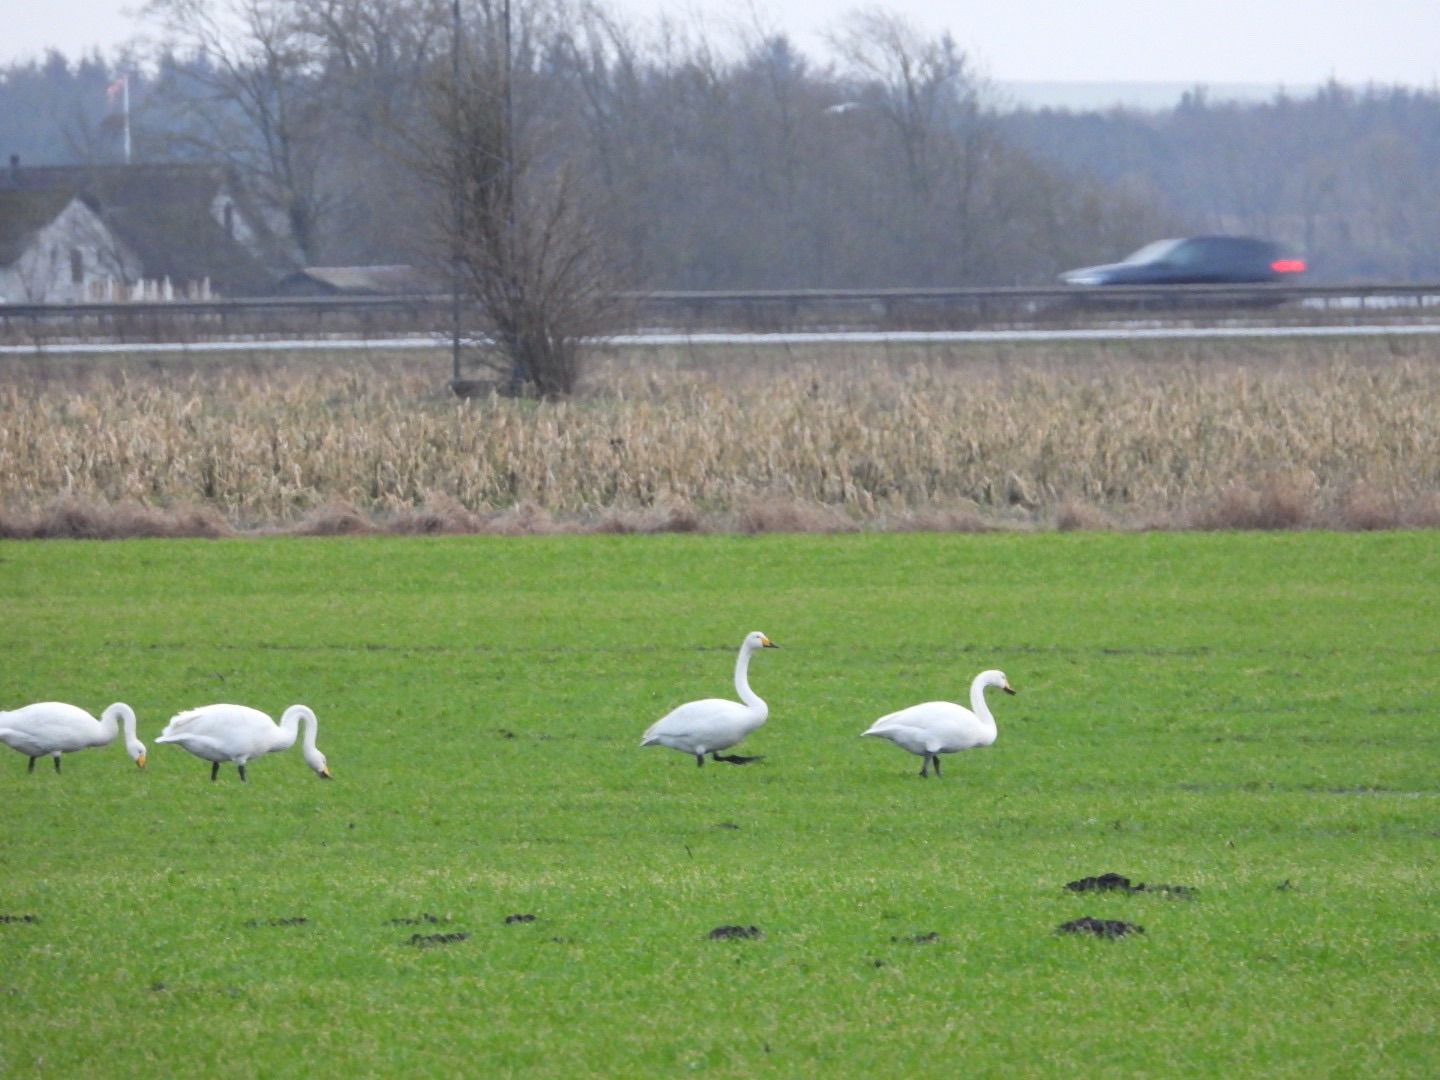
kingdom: Animalia
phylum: Chordata
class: Aves
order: Anseriformes
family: Anatidae
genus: Cygnus
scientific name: Cygnus cygnus
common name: Sangsvane
